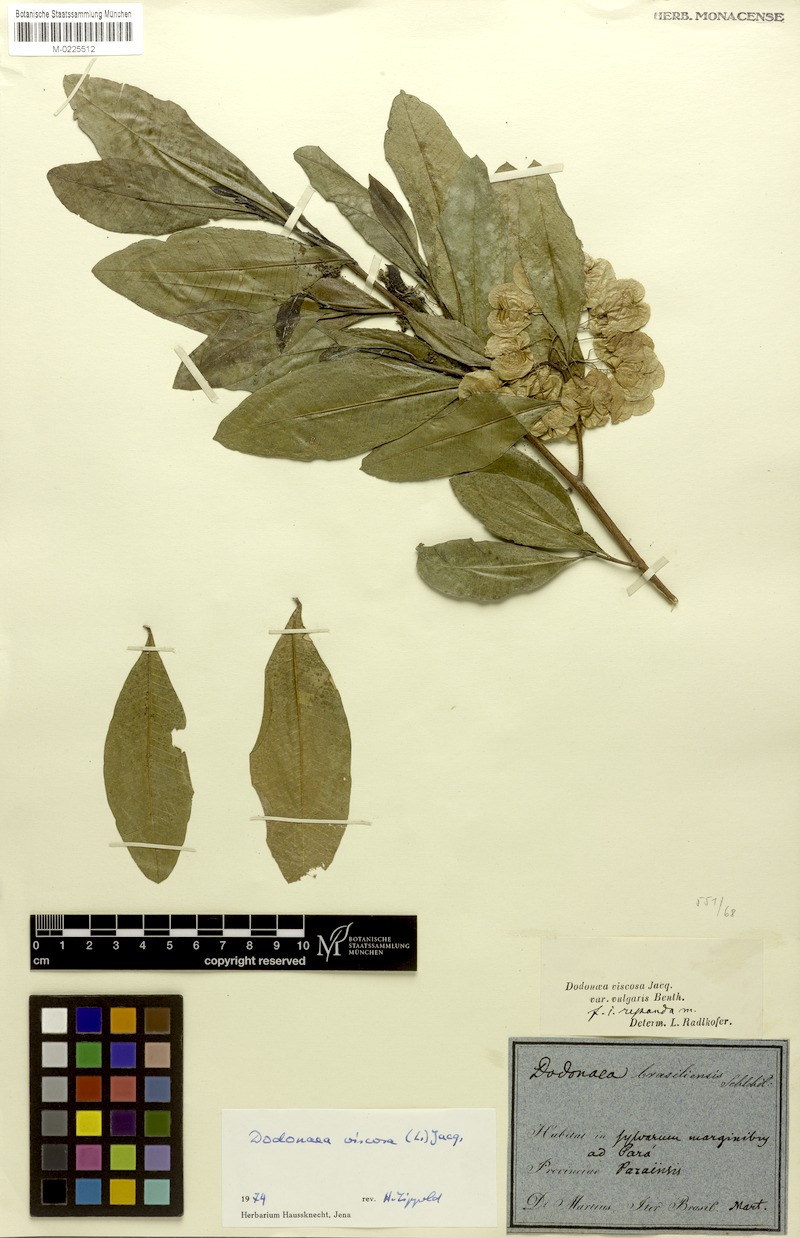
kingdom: Plantae
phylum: Tracheophyta
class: Magnoliopsida
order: Sapindales
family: Sapindaceae
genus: Dodonaea
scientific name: Dodonaea viscosa
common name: Hopbush
